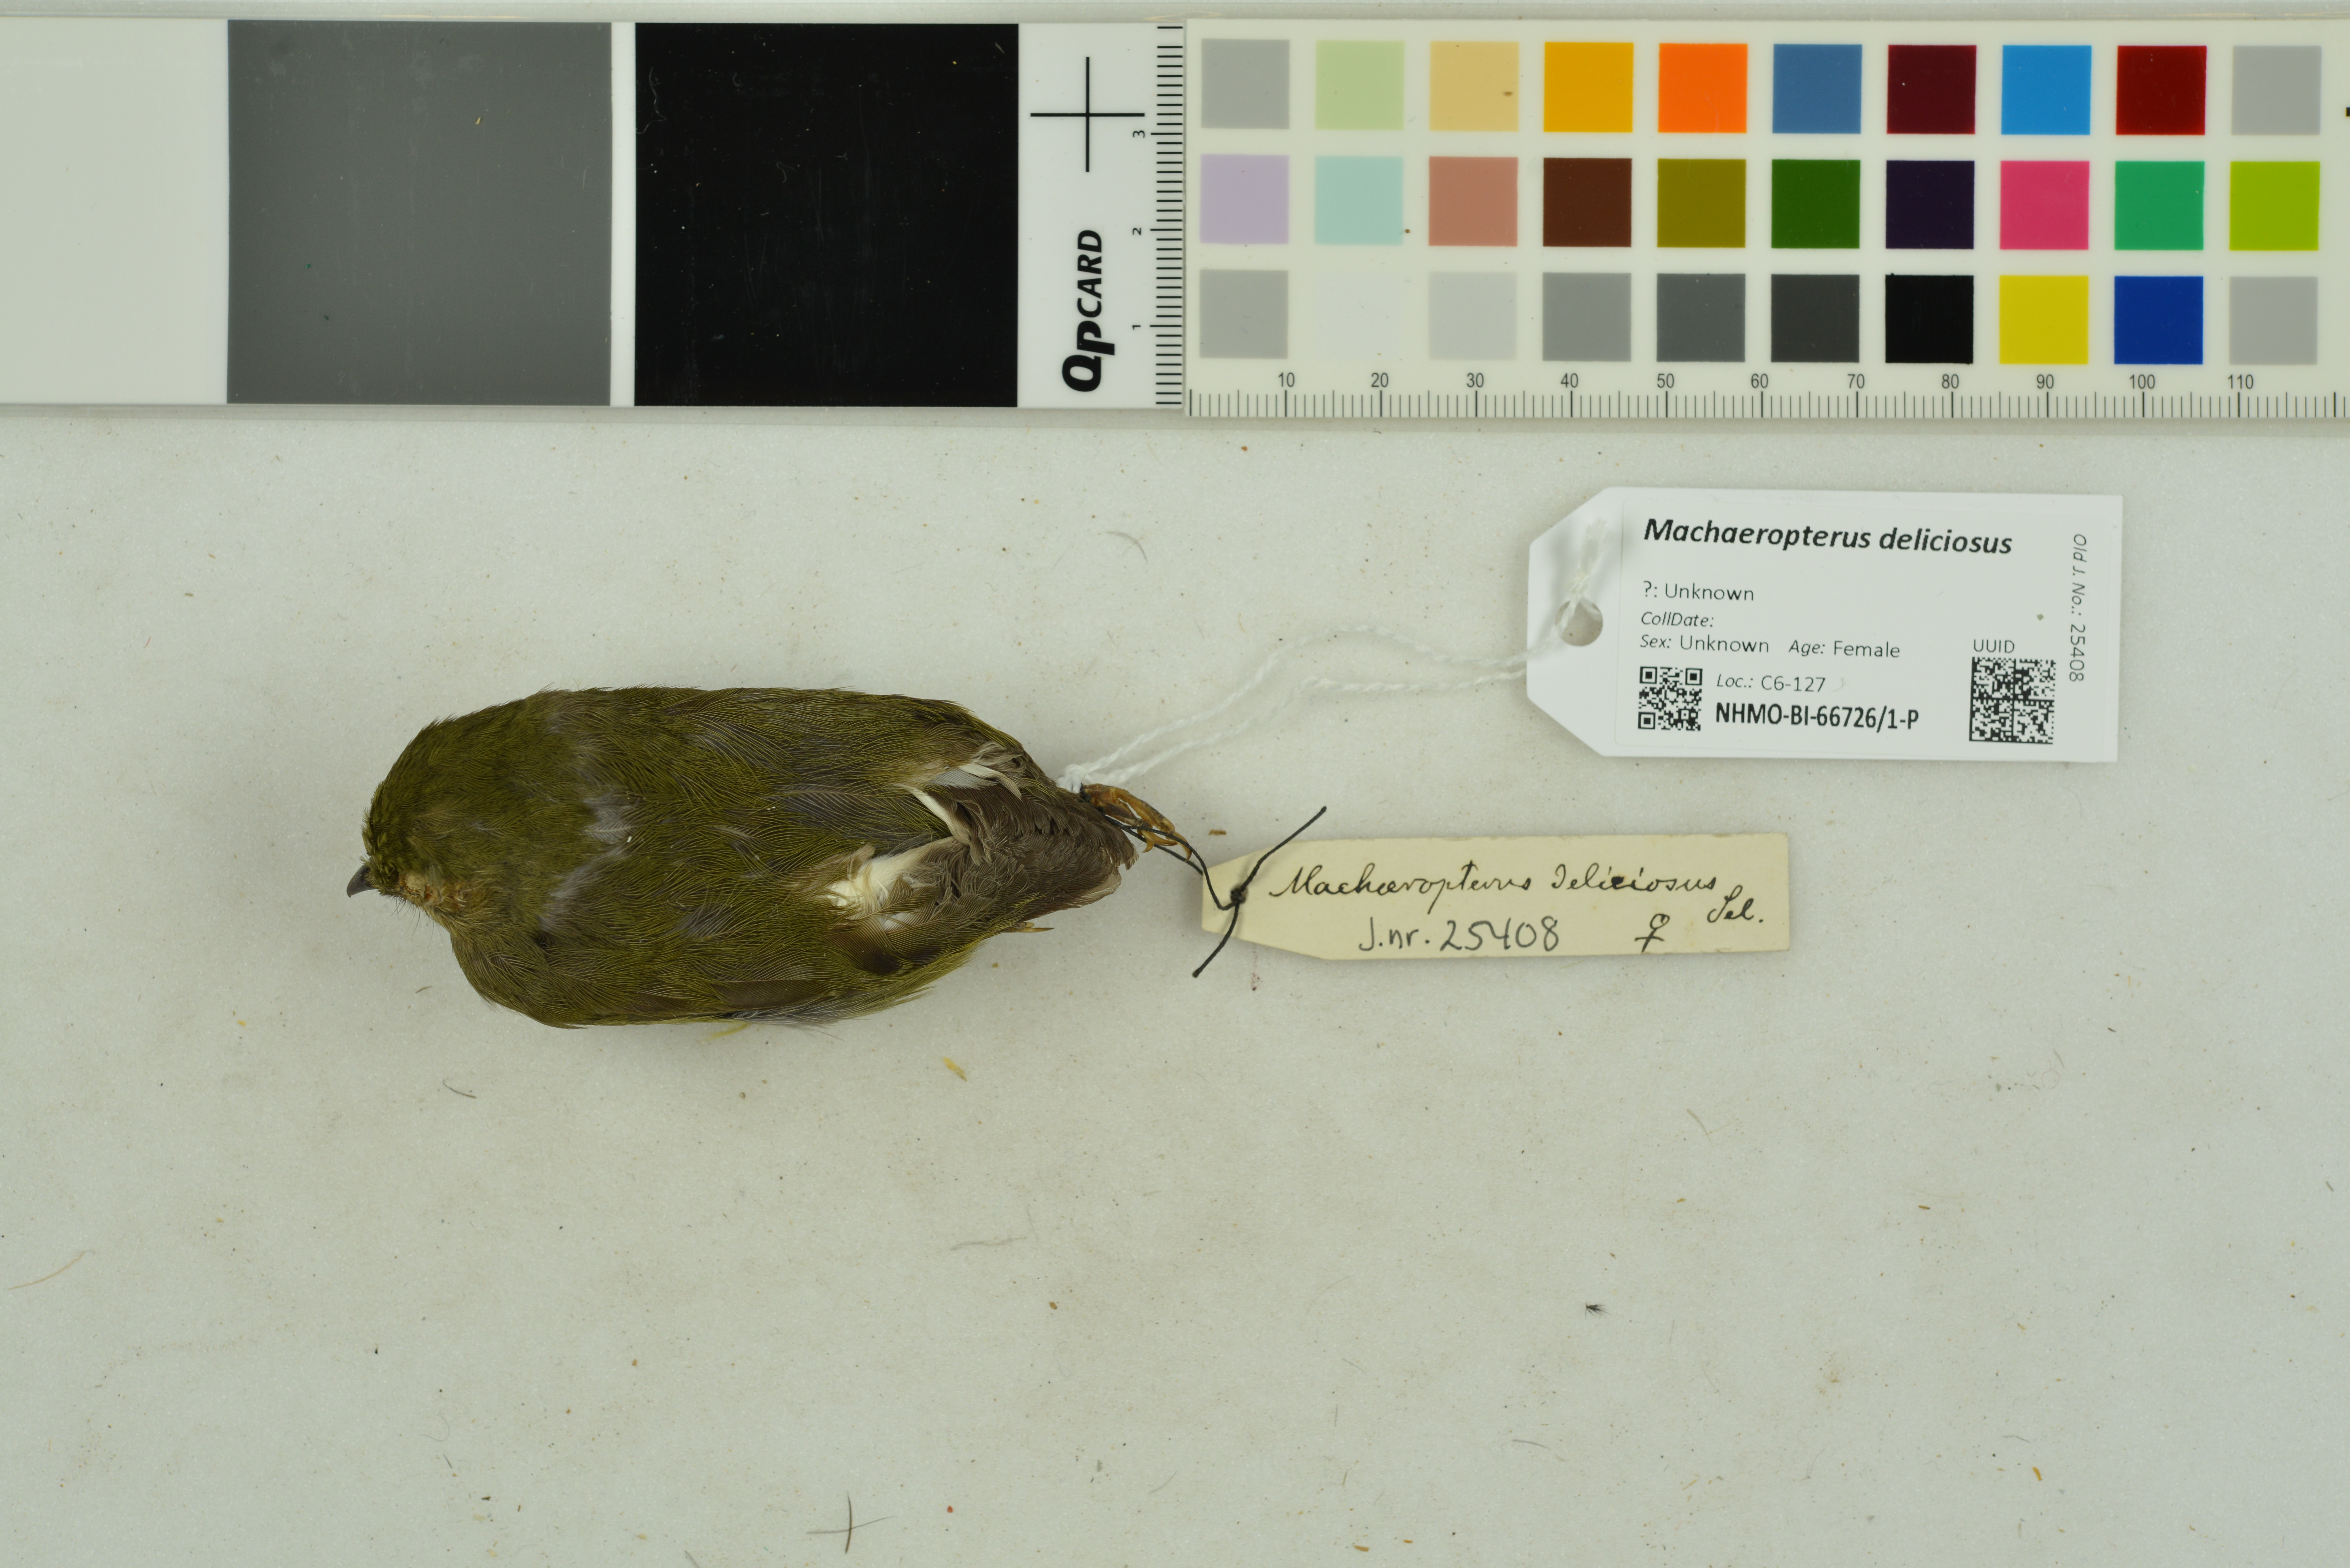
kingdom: Animalia
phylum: Chordata
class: Aves
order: Passeriformes
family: Pipridae
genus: Machaeropterus
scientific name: Machaeropterus deliciosus
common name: Club-winged manakin
